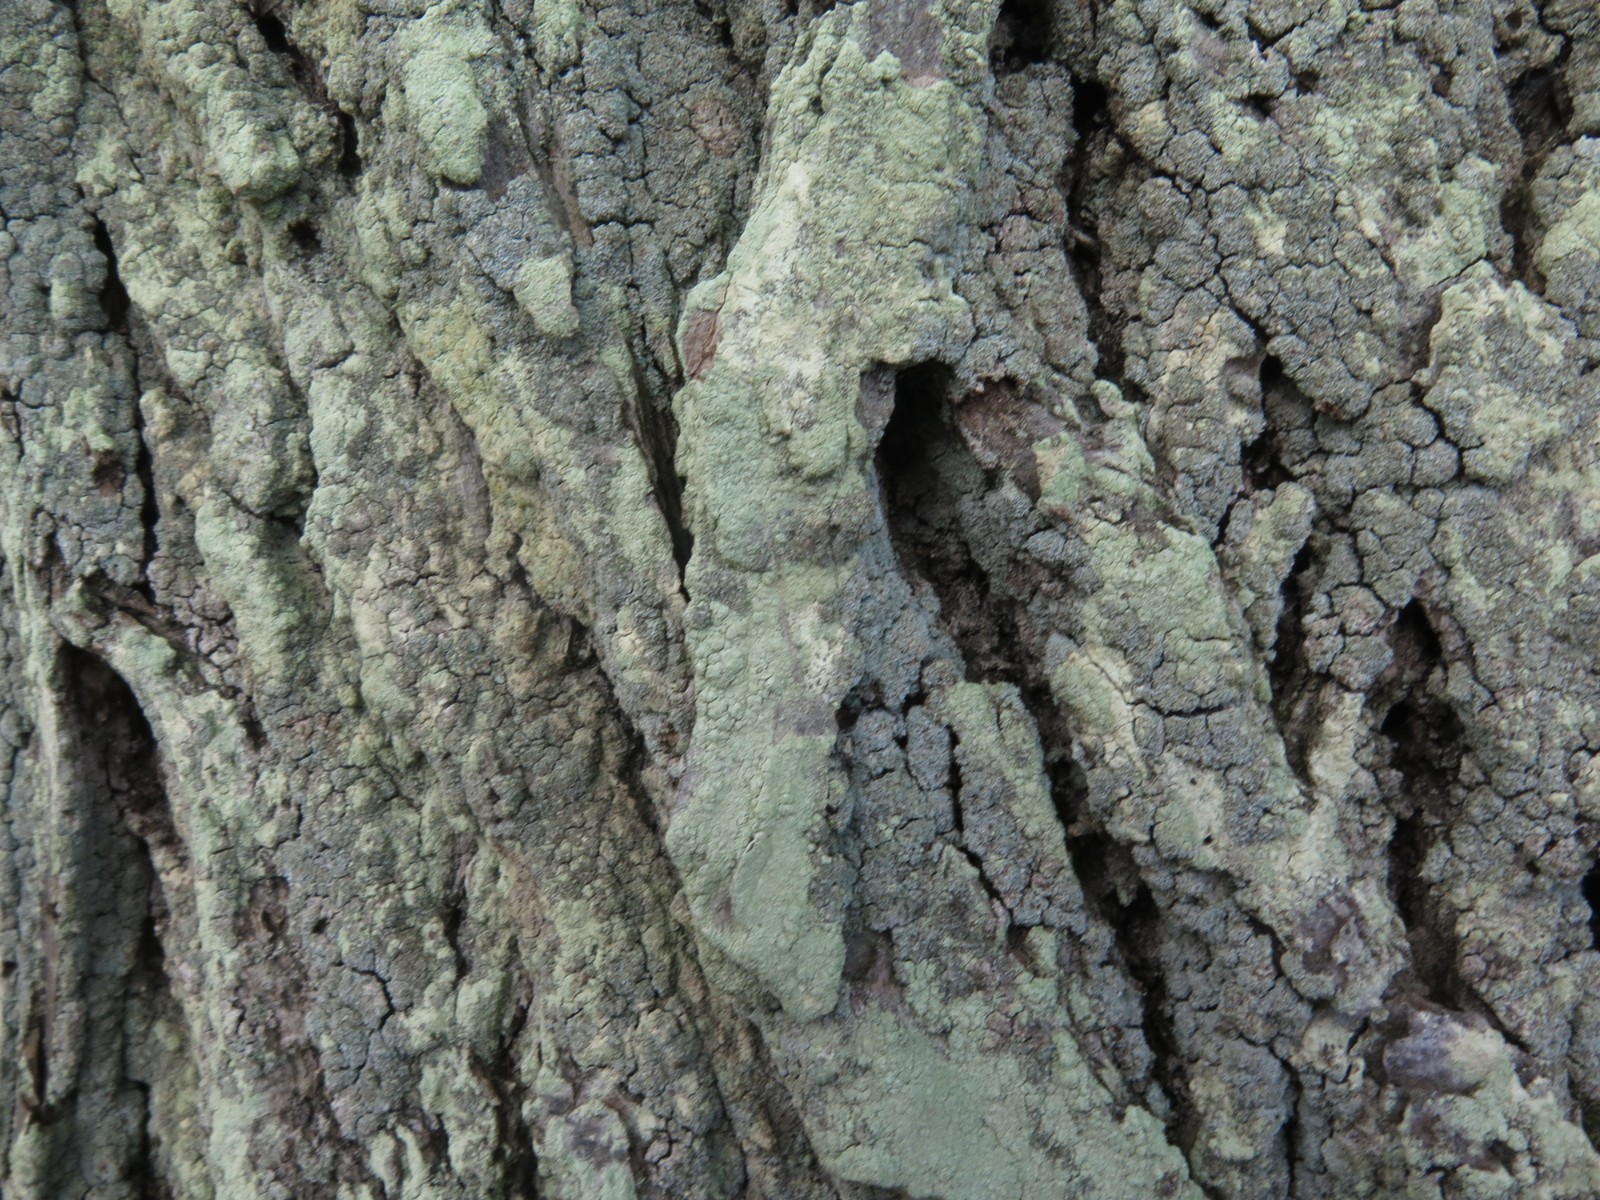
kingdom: Fungi
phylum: Ascomycota
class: Lecanoromycetes
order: Lecanorales
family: Stereocaulaceae
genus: Lepraria
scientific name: Lepraria incana
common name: almindelig støvlav
